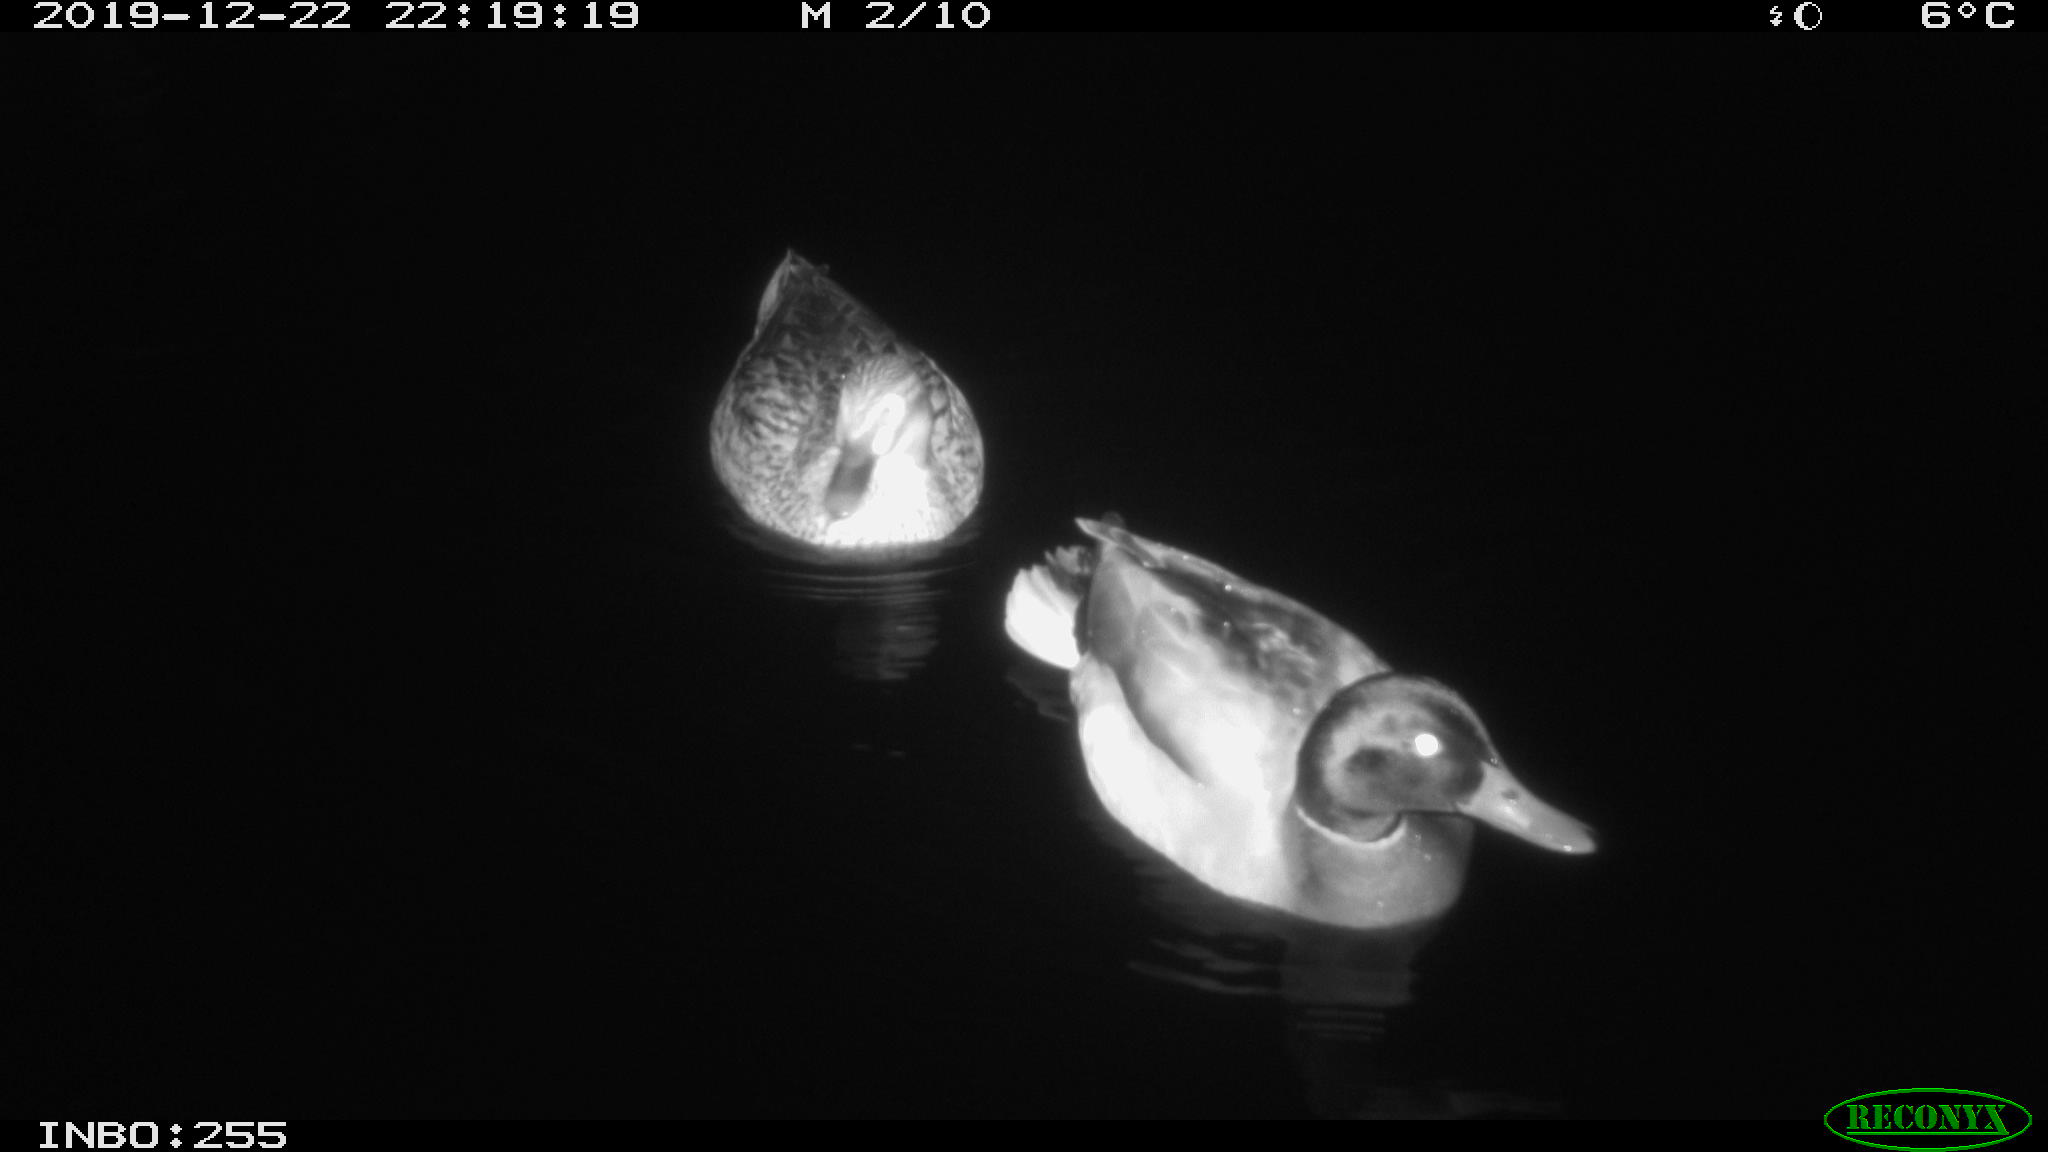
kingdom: Animalia
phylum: Chordata
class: Aves
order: Anseriformes
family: Anatidae
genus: Anas
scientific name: Anas platyrhynchos
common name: Mallard
